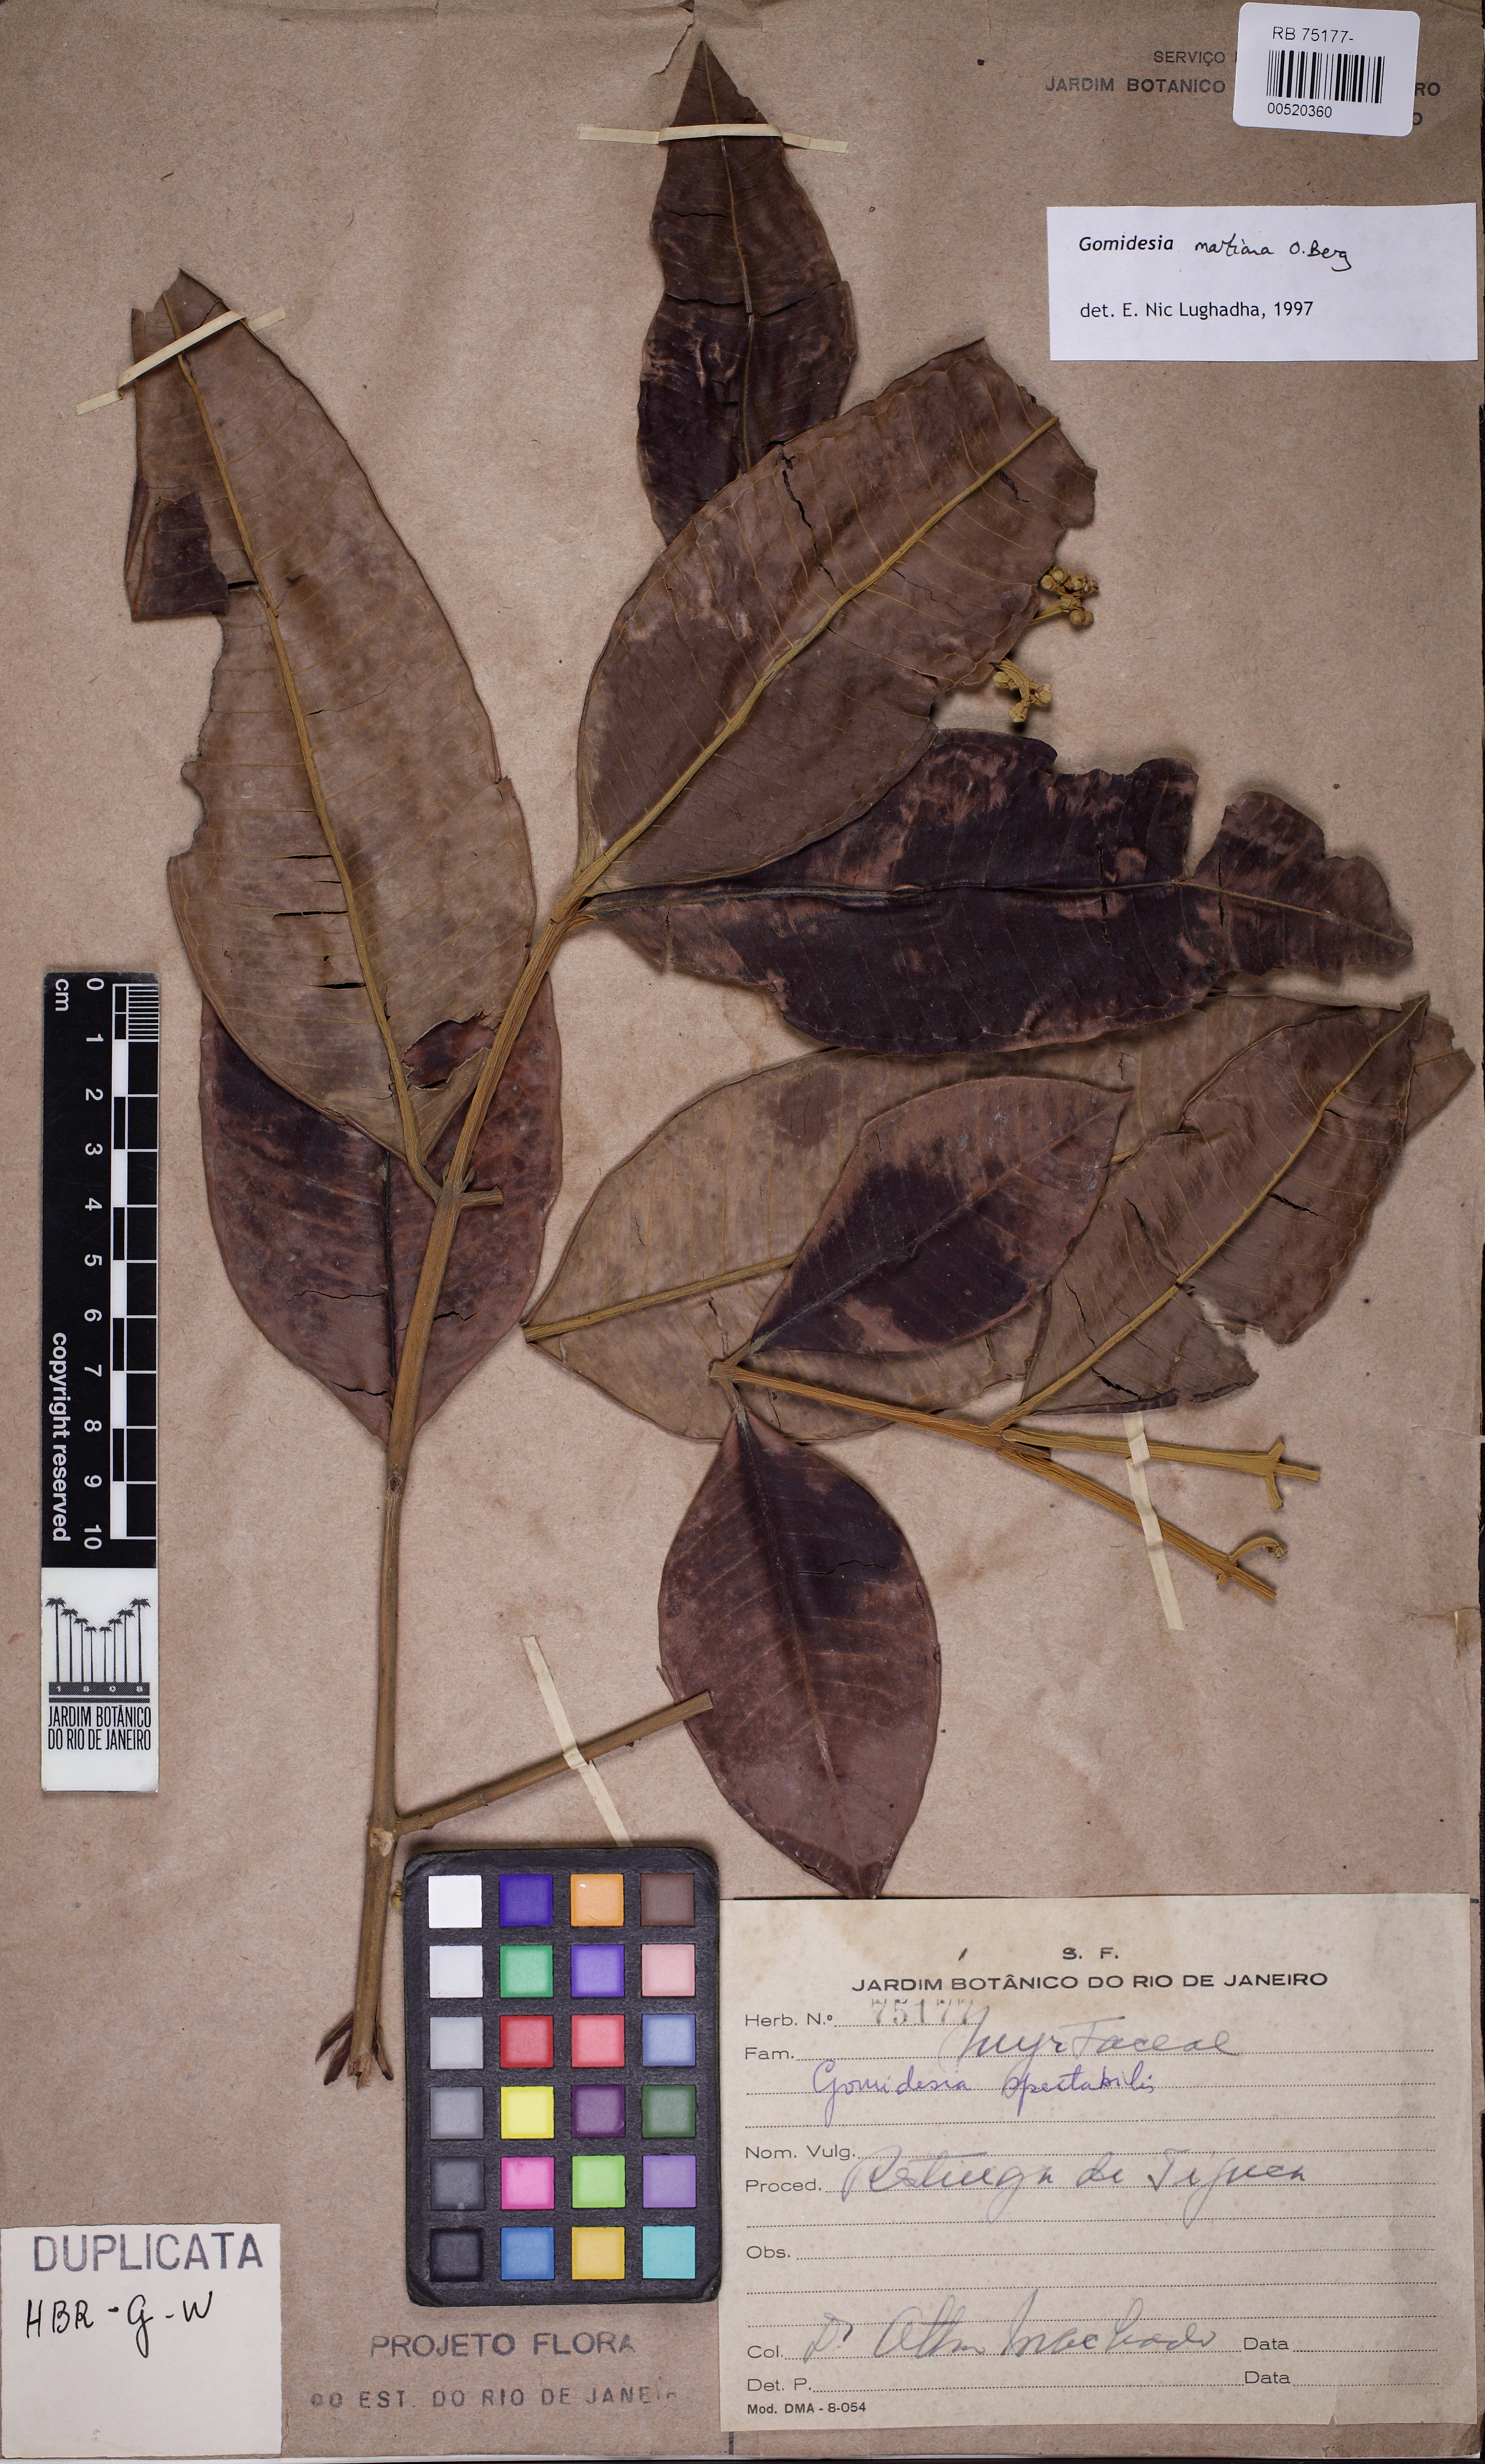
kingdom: Plantae
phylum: Tracheophyta
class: Magnoliopsida
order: Myrtales
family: Myrtaceae
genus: Myrcia
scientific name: Myrcia vittoriana
